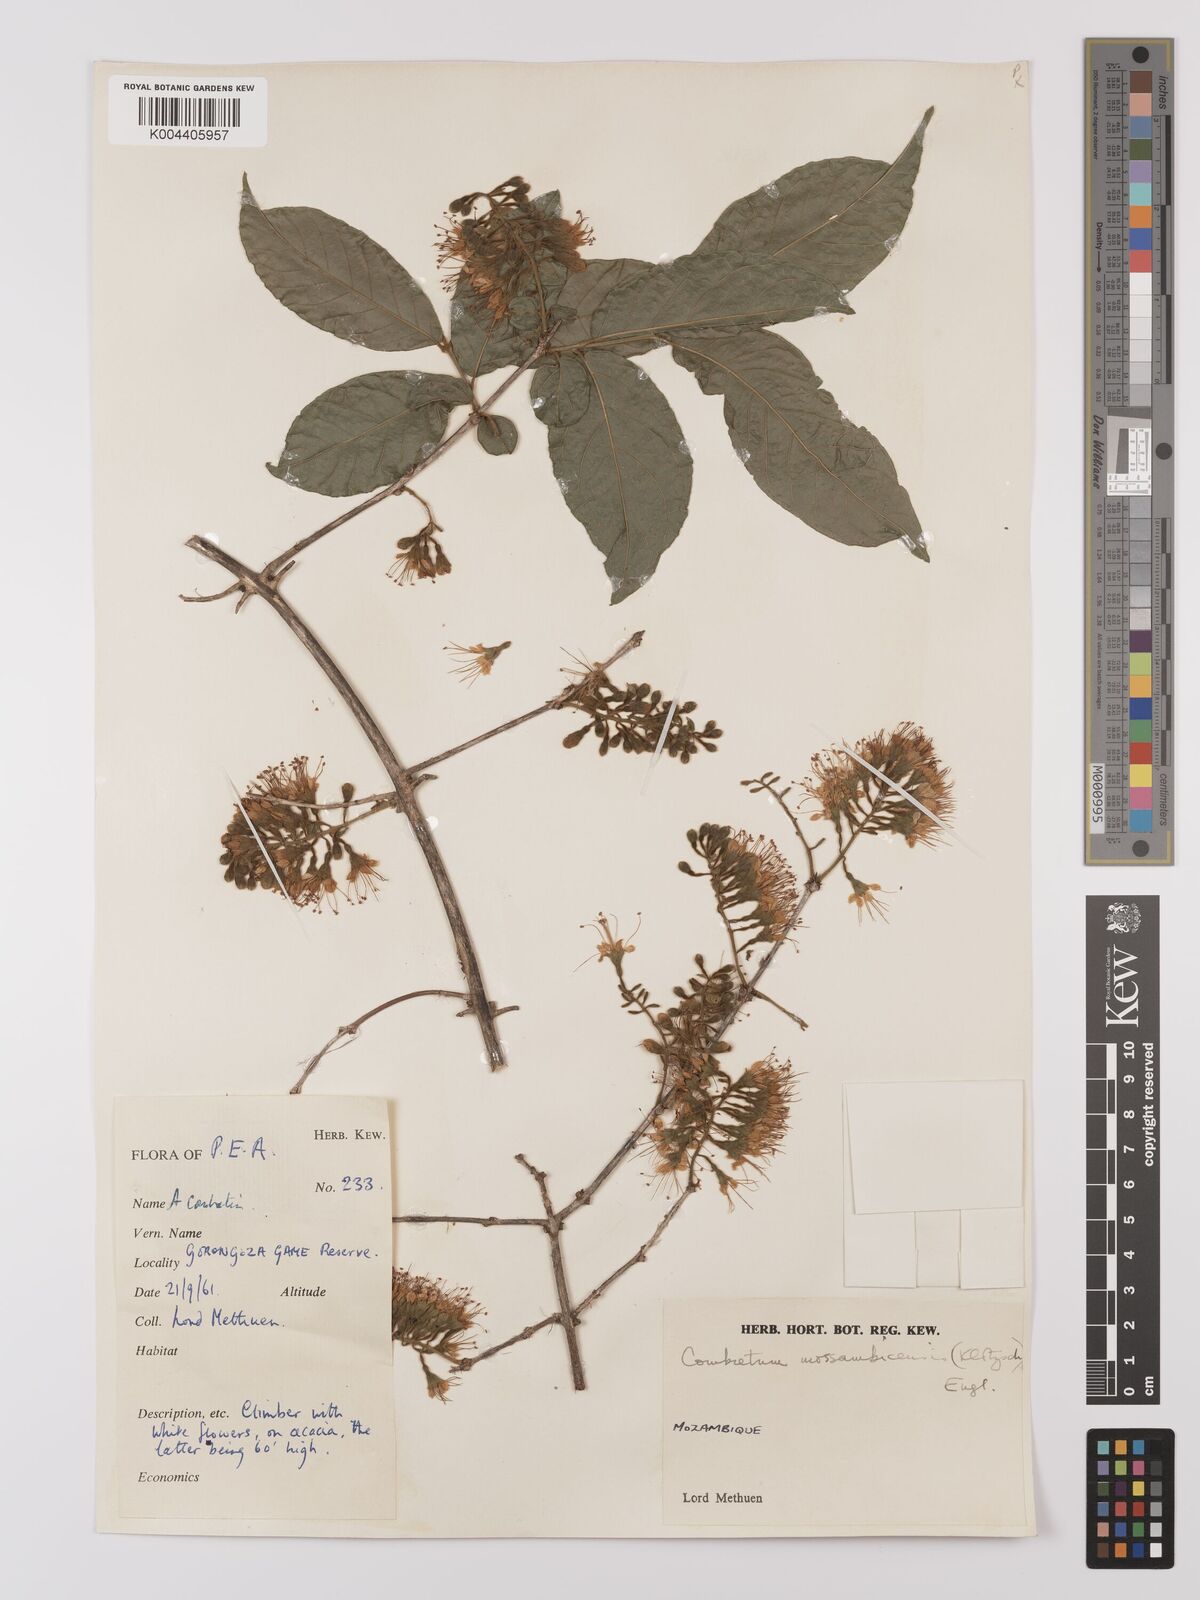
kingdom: Plantae
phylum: Tracheophyta
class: Magnoliopsida
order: Myrtales
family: Combretaceae
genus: Combretum
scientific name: Combretum mossambicense
